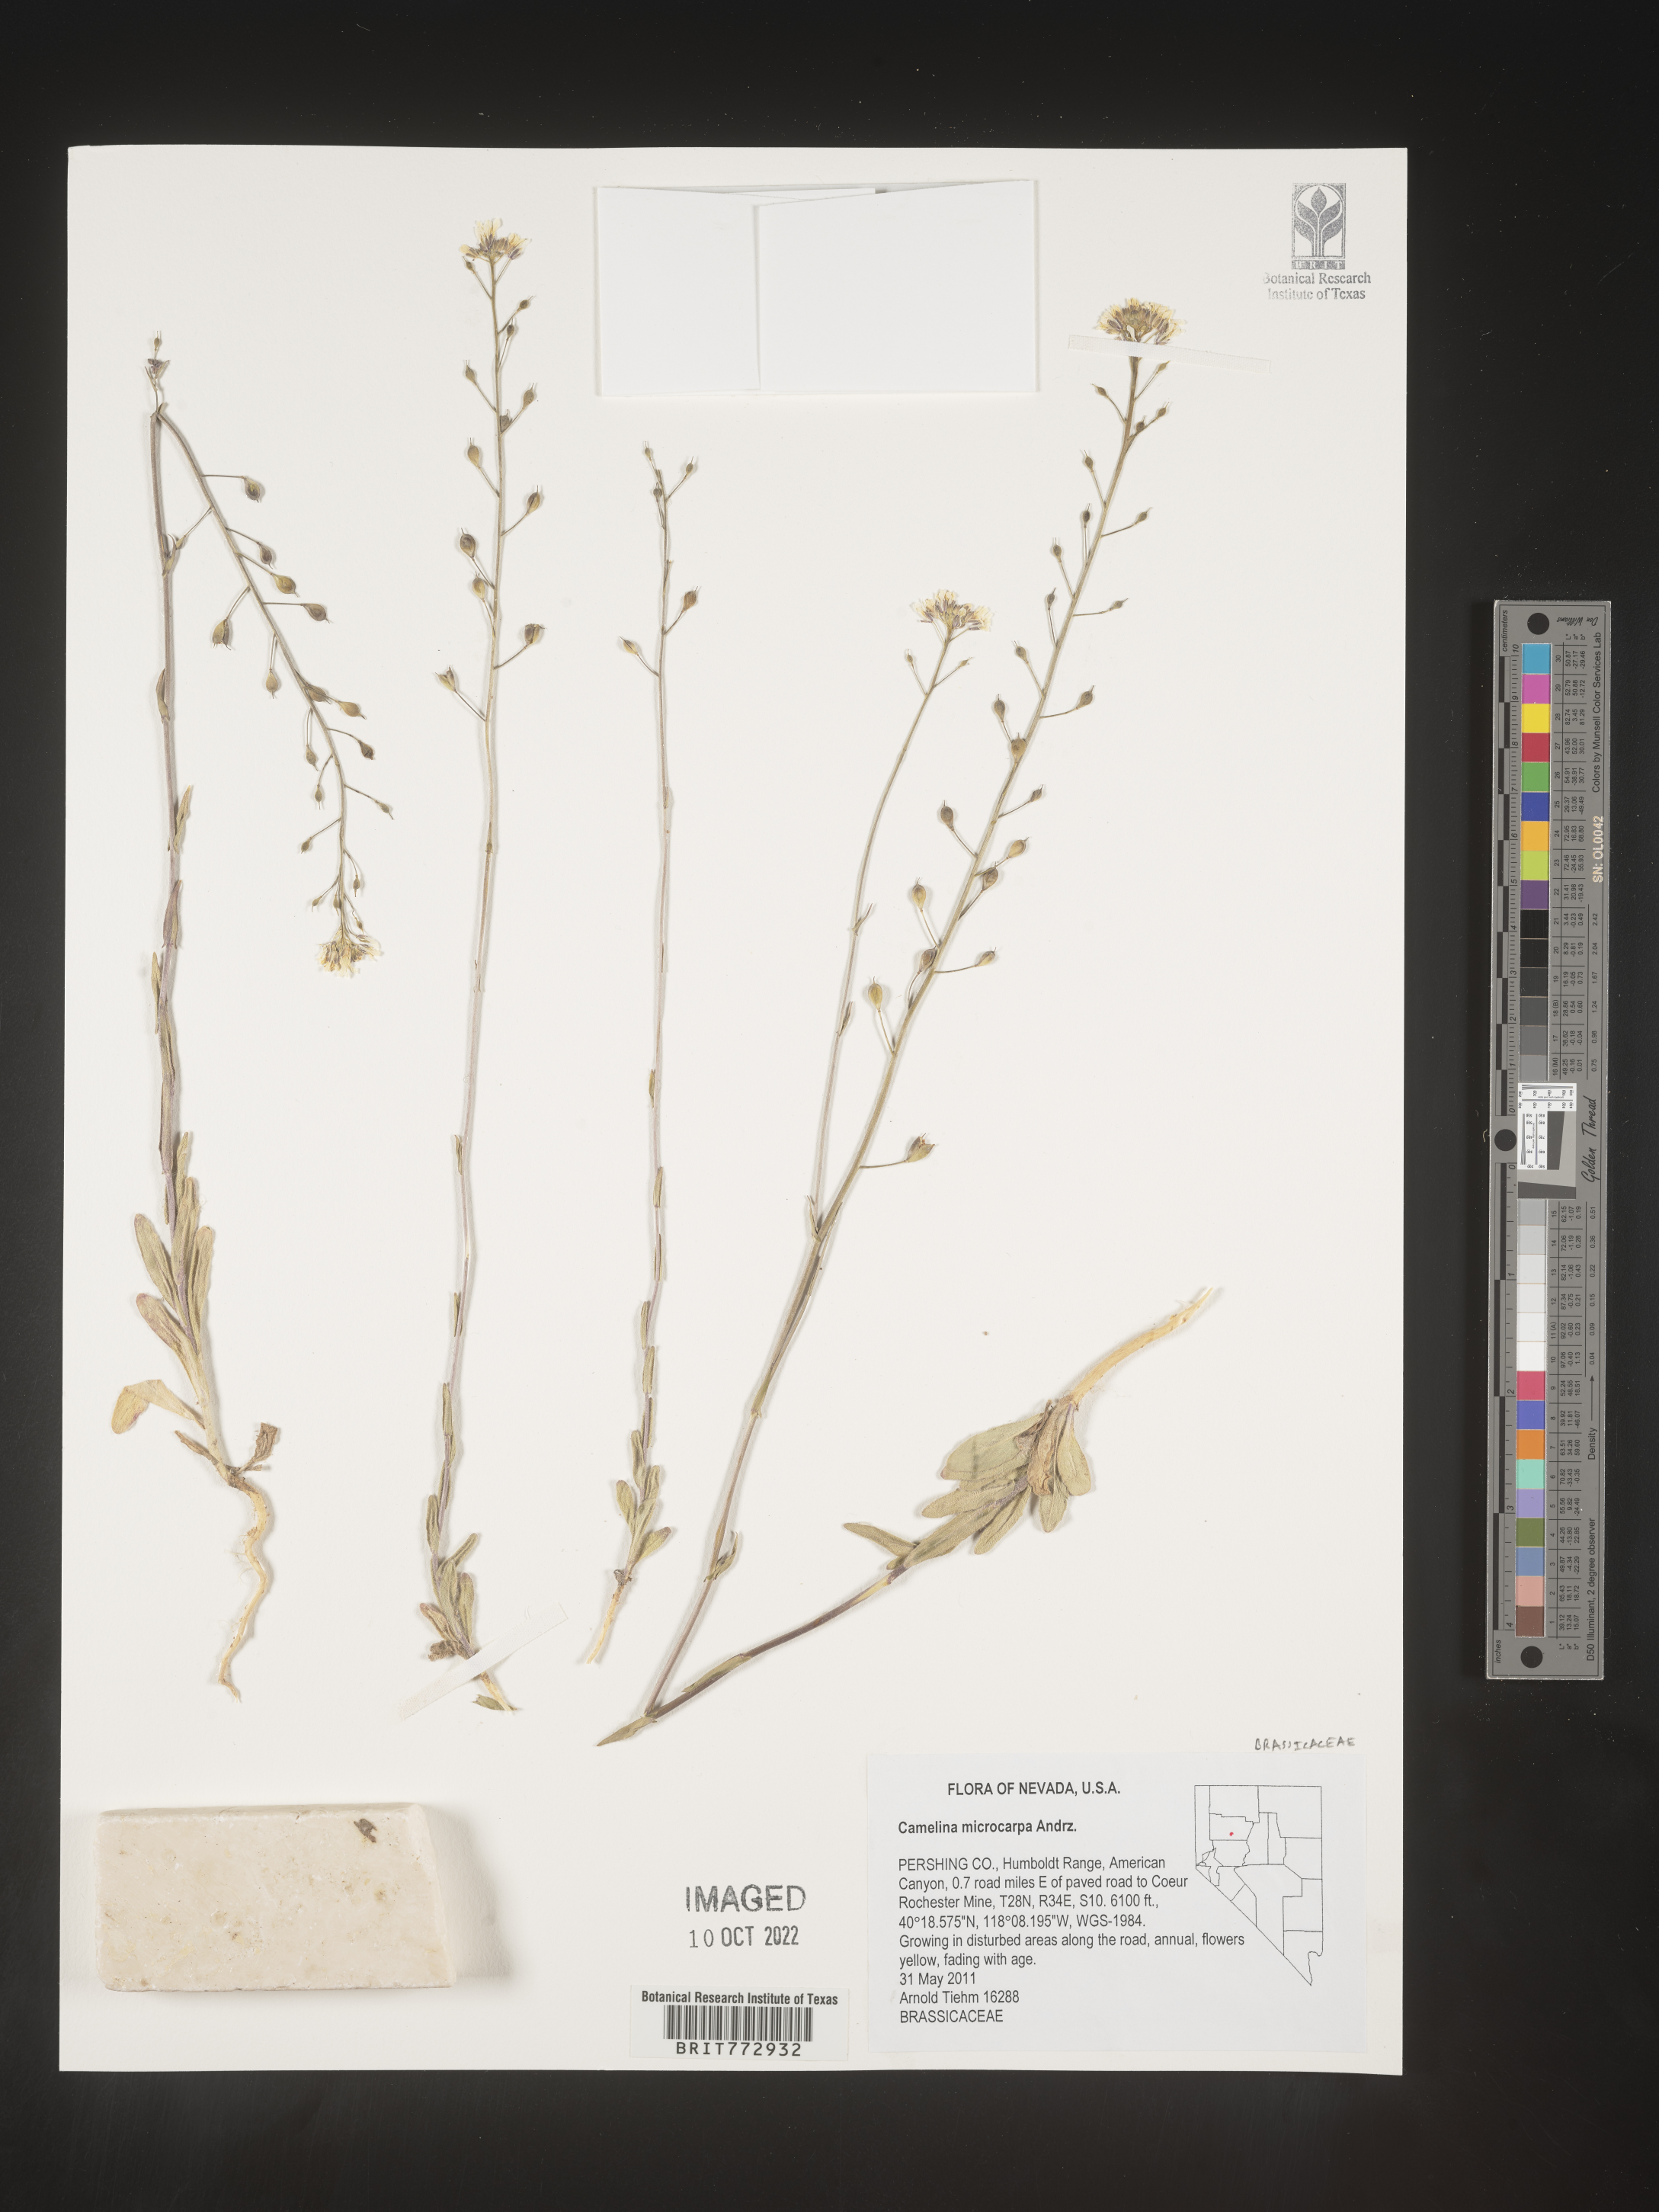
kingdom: Plantae
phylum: Tracheophyta
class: Magnoliopsida
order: Brassicales
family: Brassicaceae
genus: Camelina
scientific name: Camelina microcarpa
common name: Lesser gold-of-pleasure
